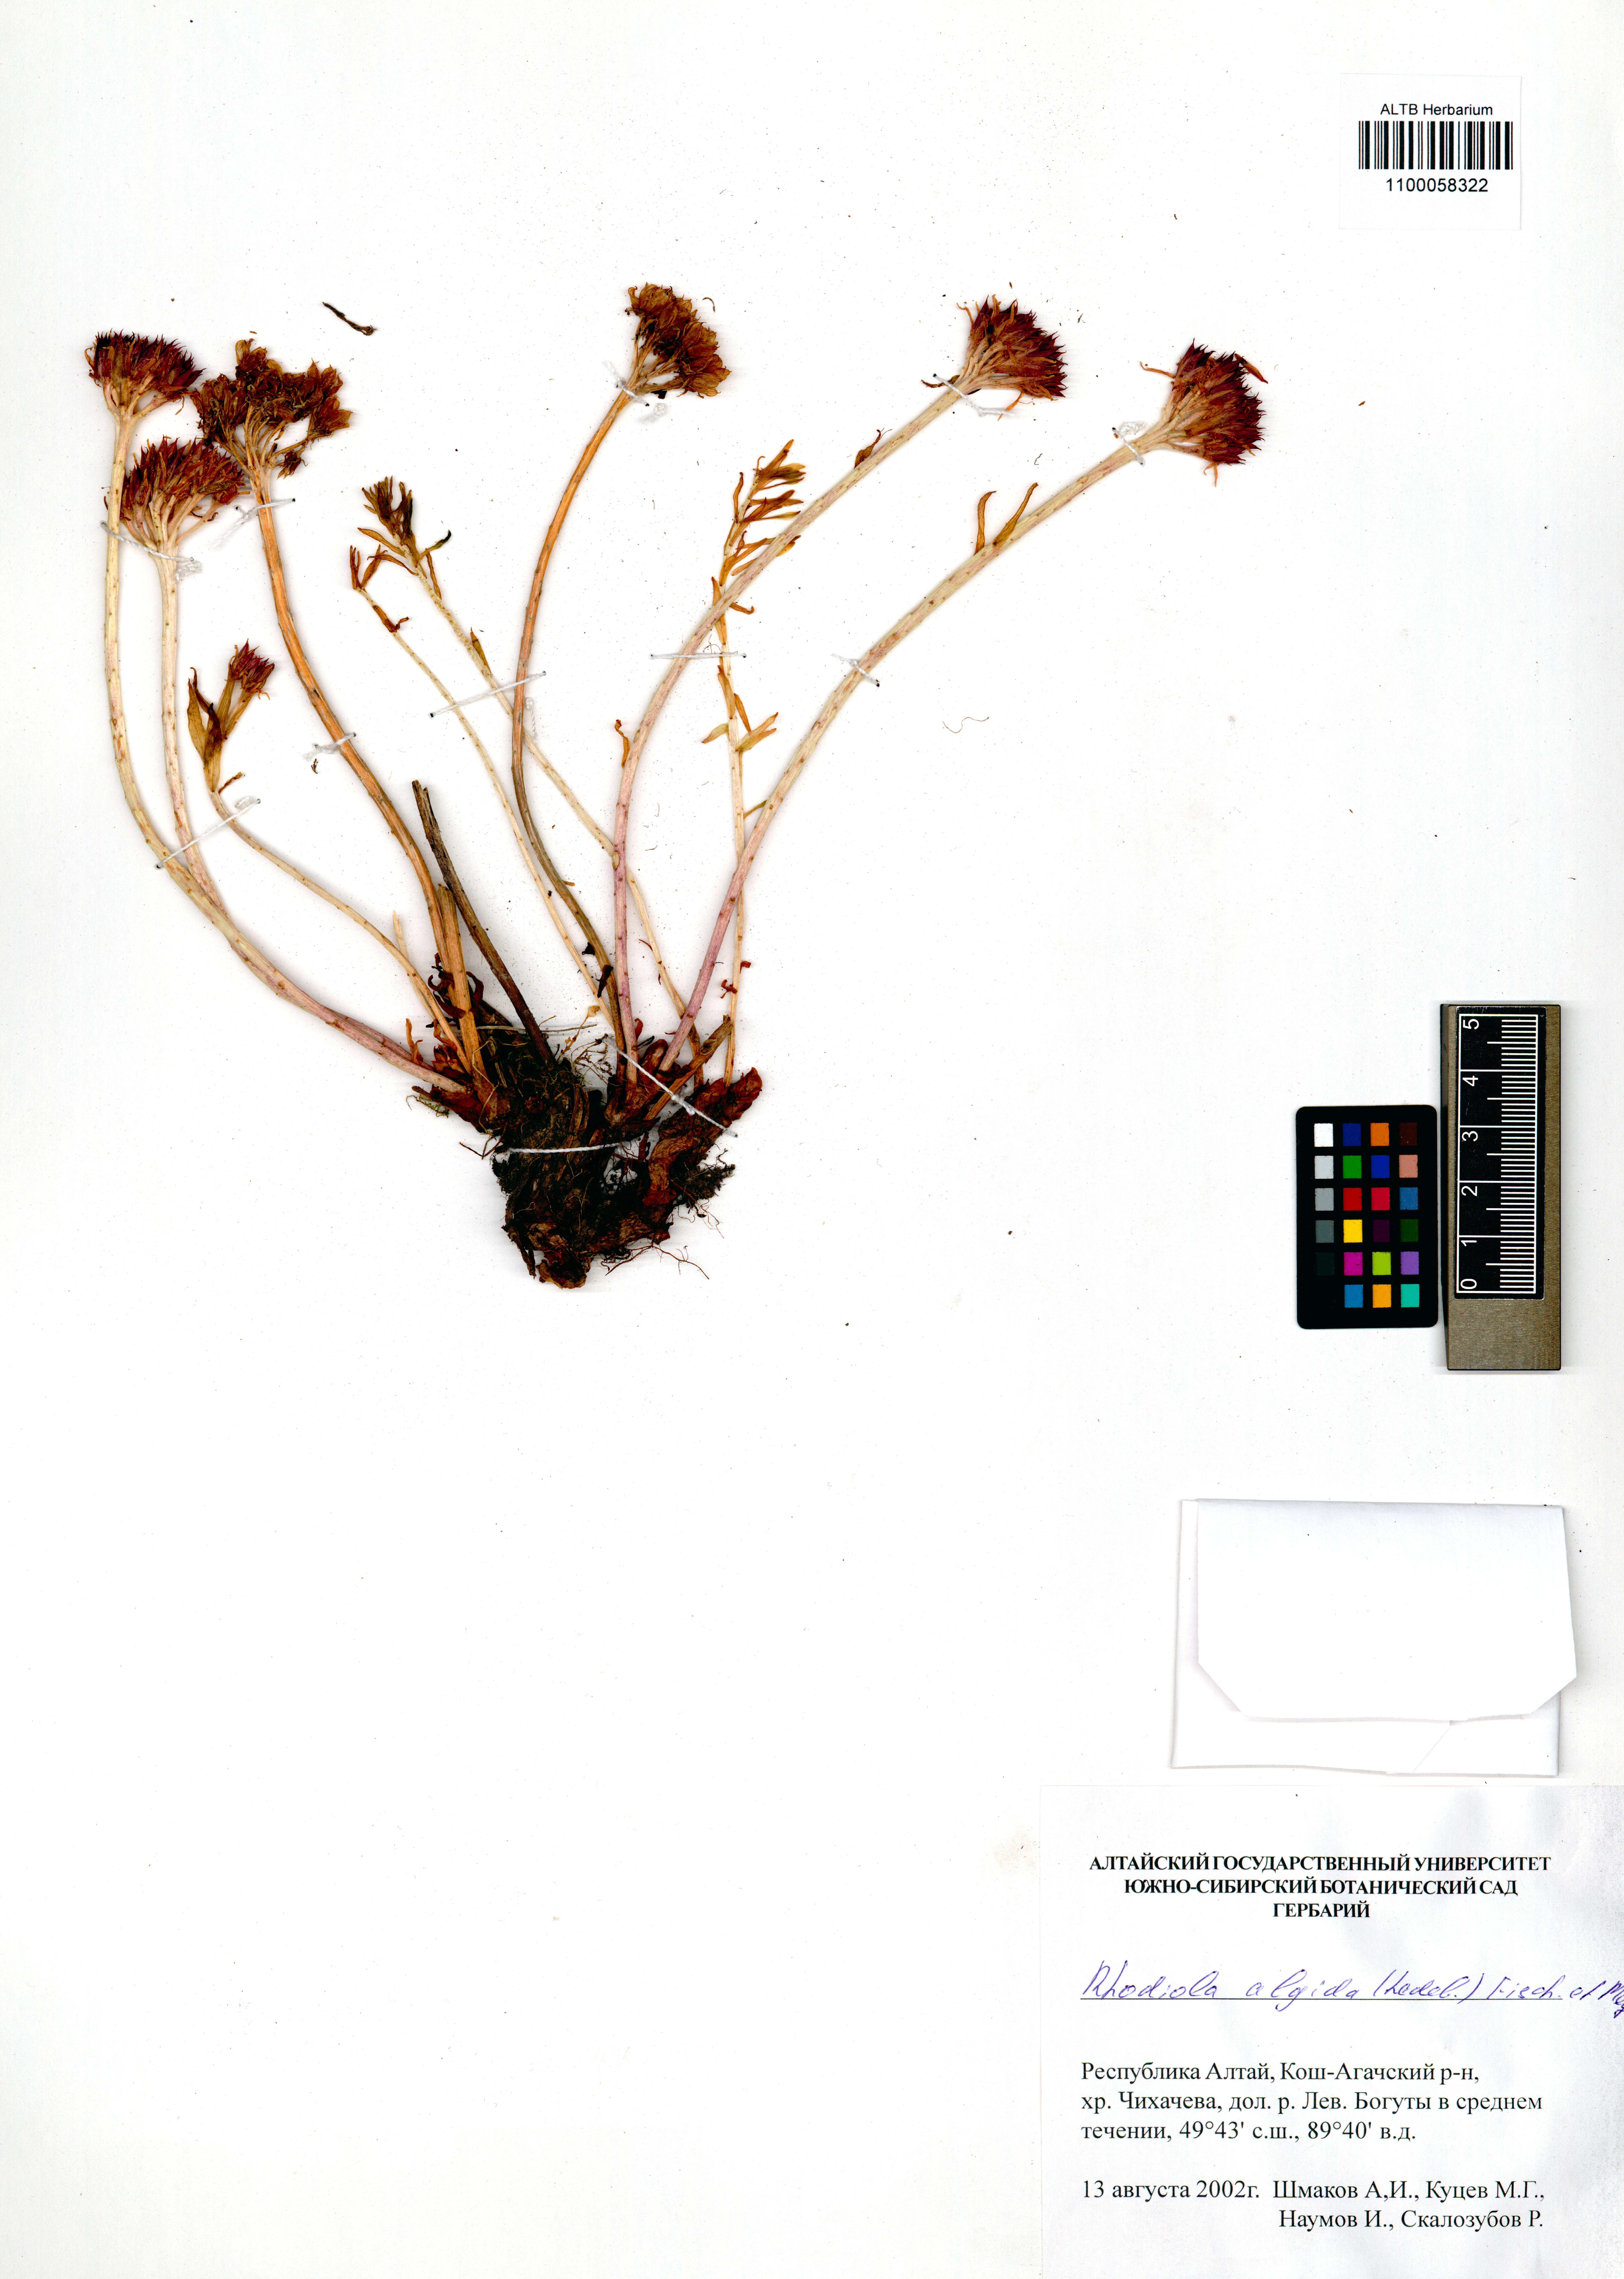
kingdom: Plantae
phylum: Tracheophyta
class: Magnoliopsida
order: Saxifragales
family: Crassulaceae
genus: Rhodiola
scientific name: Rhodiola algida
